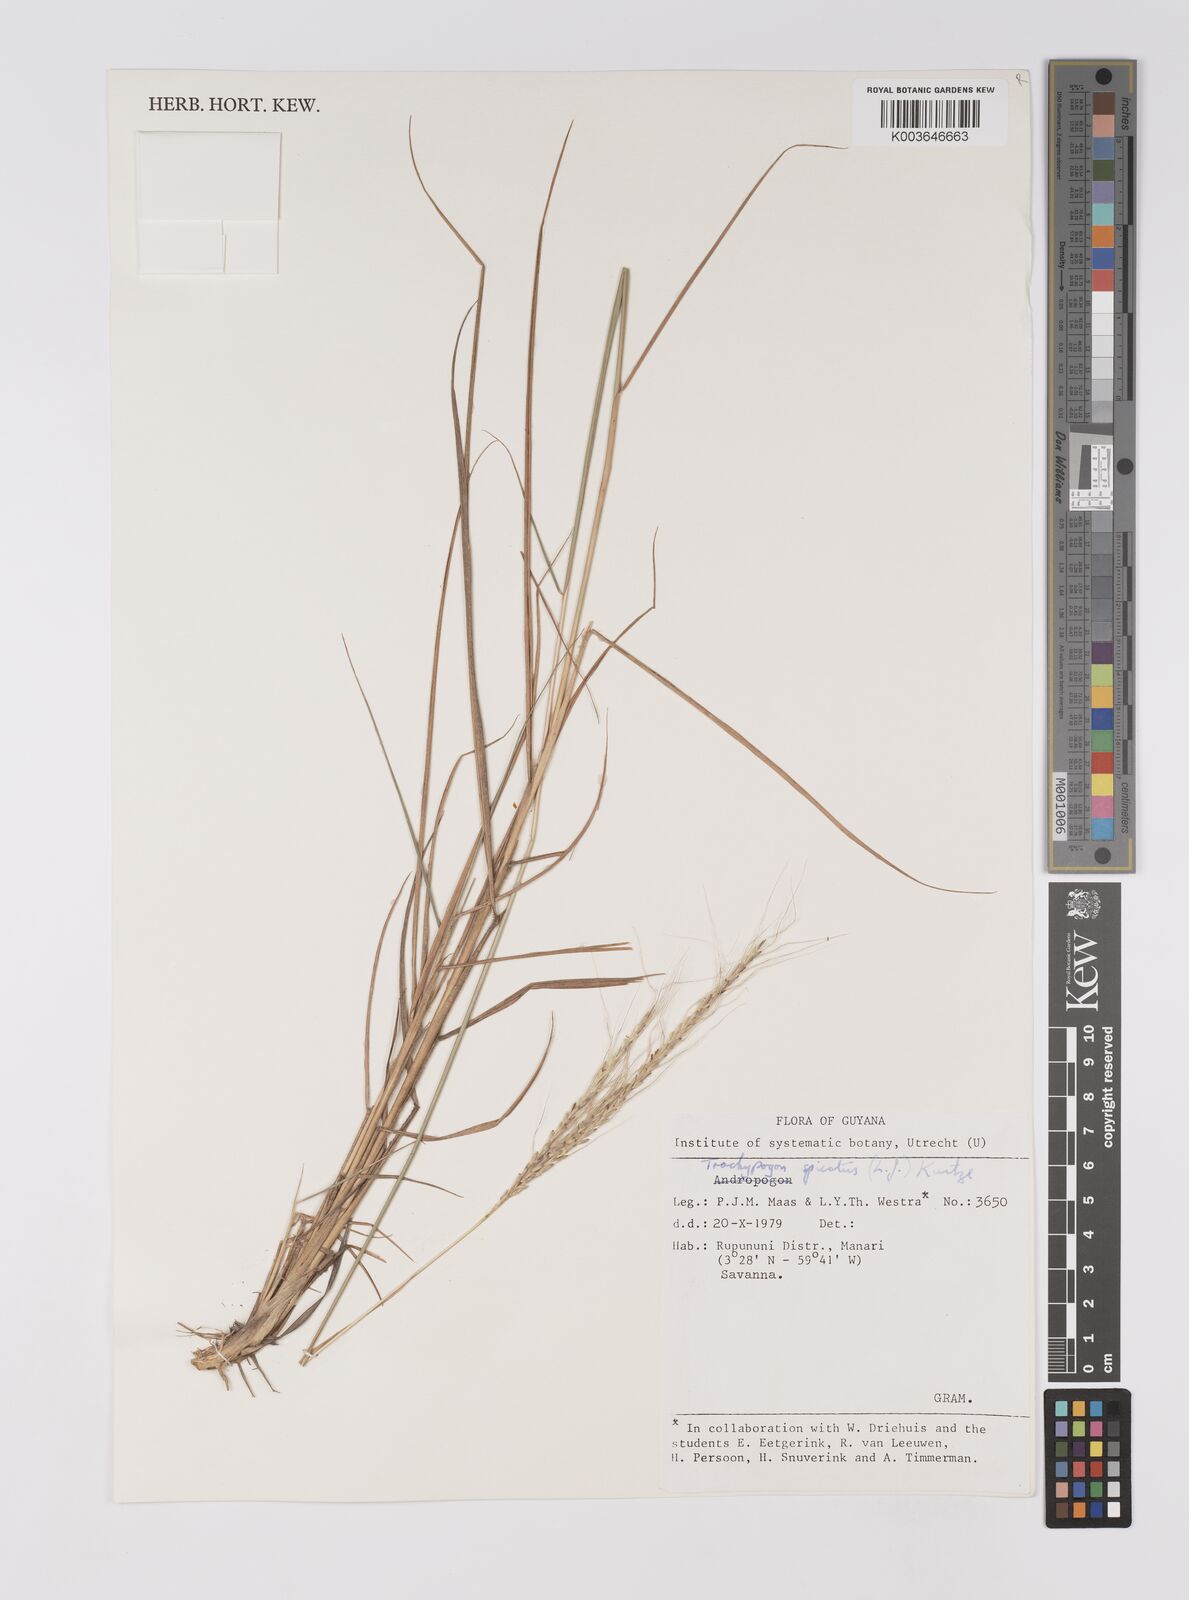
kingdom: Plantae
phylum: Tracheophyta
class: Liliopsida
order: Poales
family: Poaceae
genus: Trachypogon
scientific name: Trachypogon spicatus
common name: Crinkle-awn
